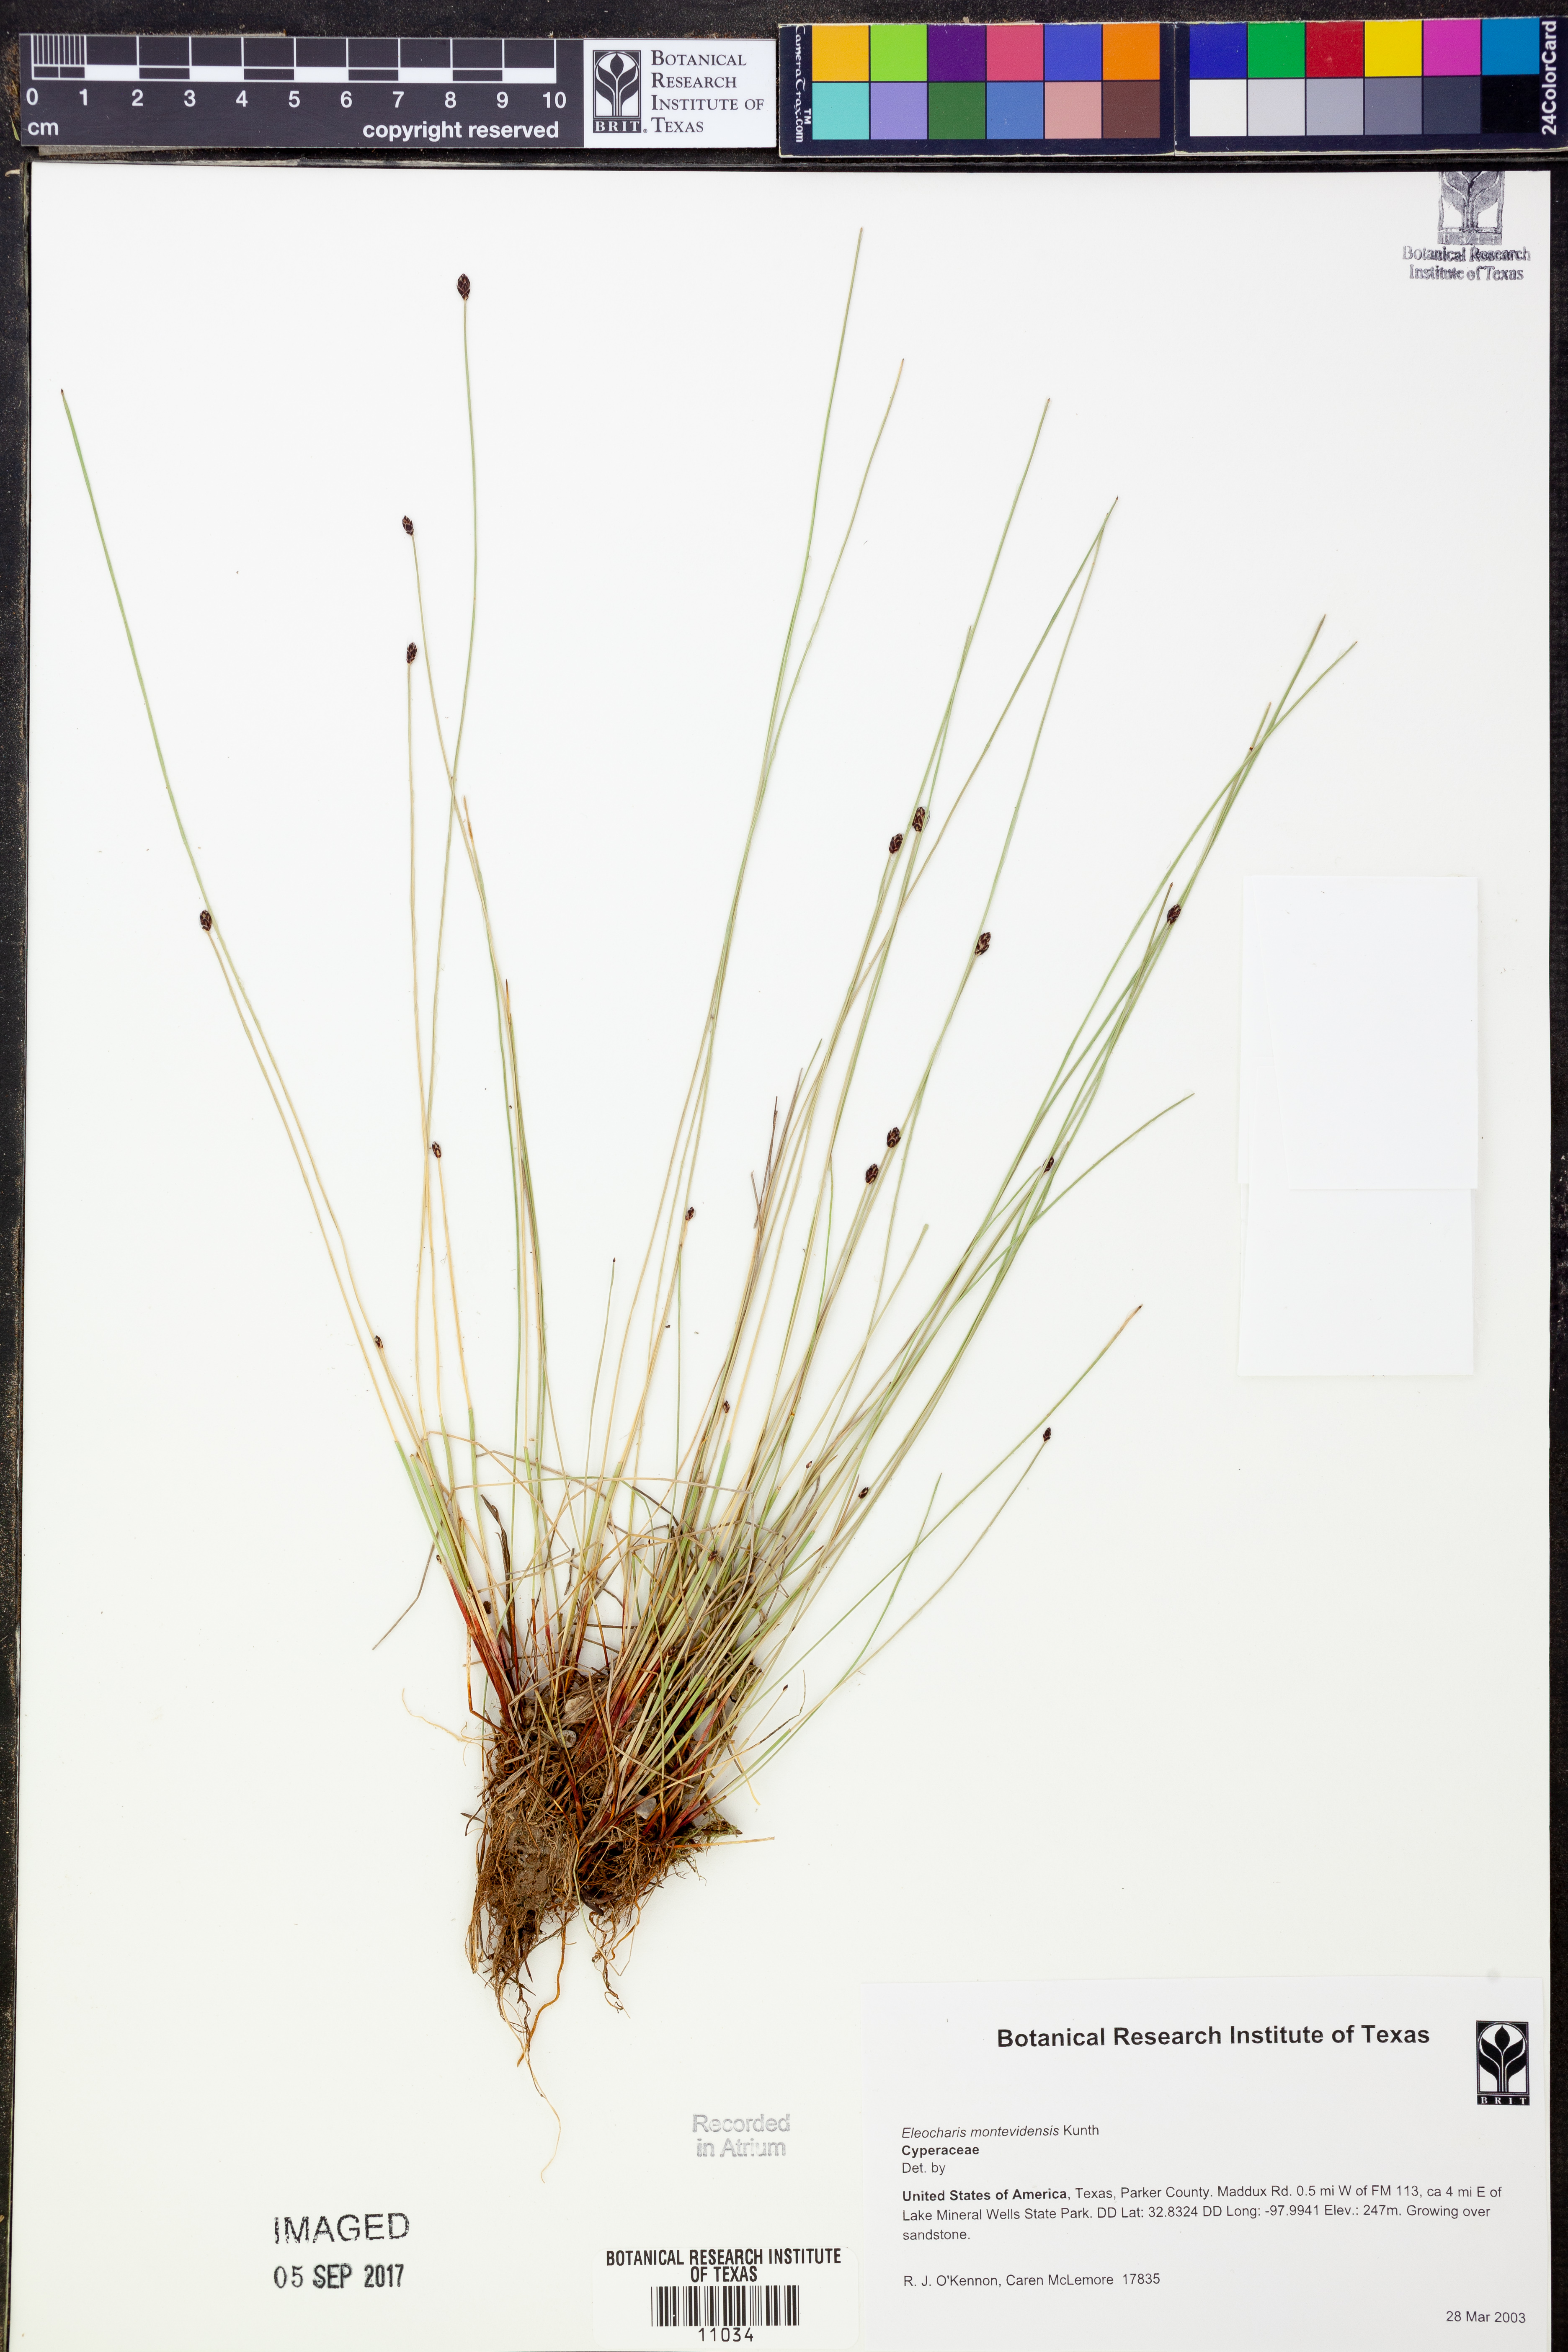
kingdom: Plantae
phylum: Tracheophyta
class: Liliopsida
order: Poales
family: Cyperaceae
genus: Eleocharis
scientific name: Eleocharis montevidensis
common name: Sand spike-rush
